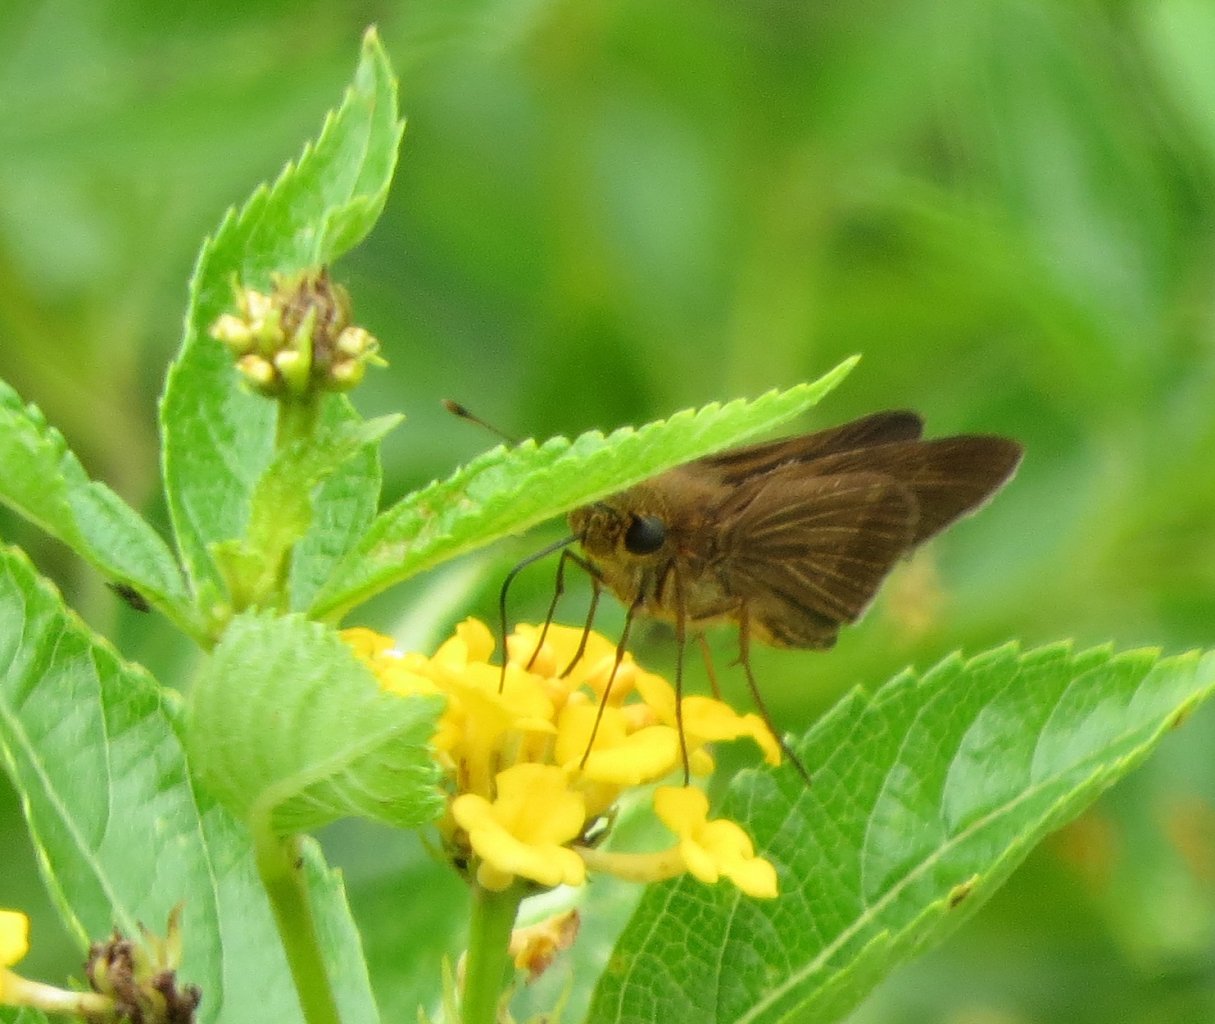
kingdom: Animalia
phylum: Arthropoda
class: Insecta
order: Lepidoptera
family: Hesperiidae
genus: Panoquina
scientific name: Panoquina ocola
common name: Ocola Skipper
